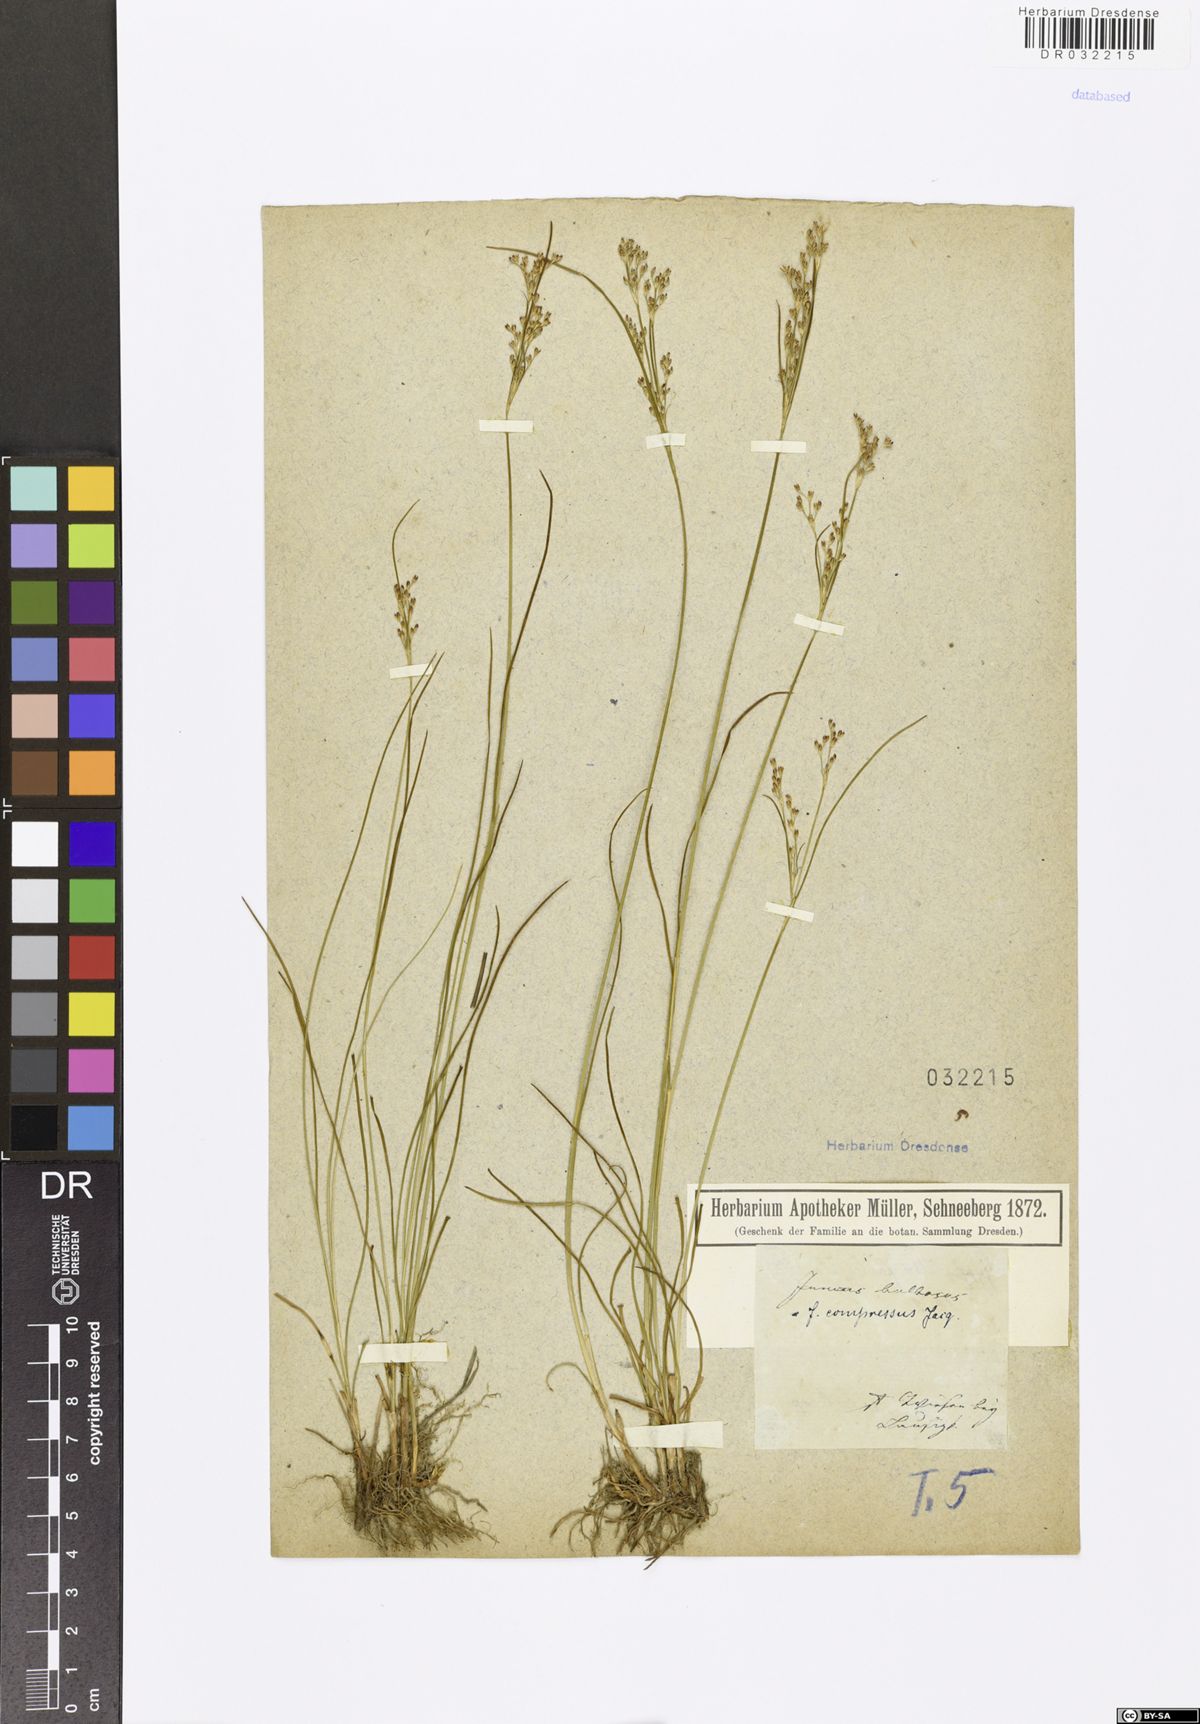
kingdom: Plantae
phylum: Tracheophyta
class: Liliopsida
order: Poales
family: Juncaceae
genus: Juncus
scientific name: Juncus compressus
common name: Round-fruited rush
